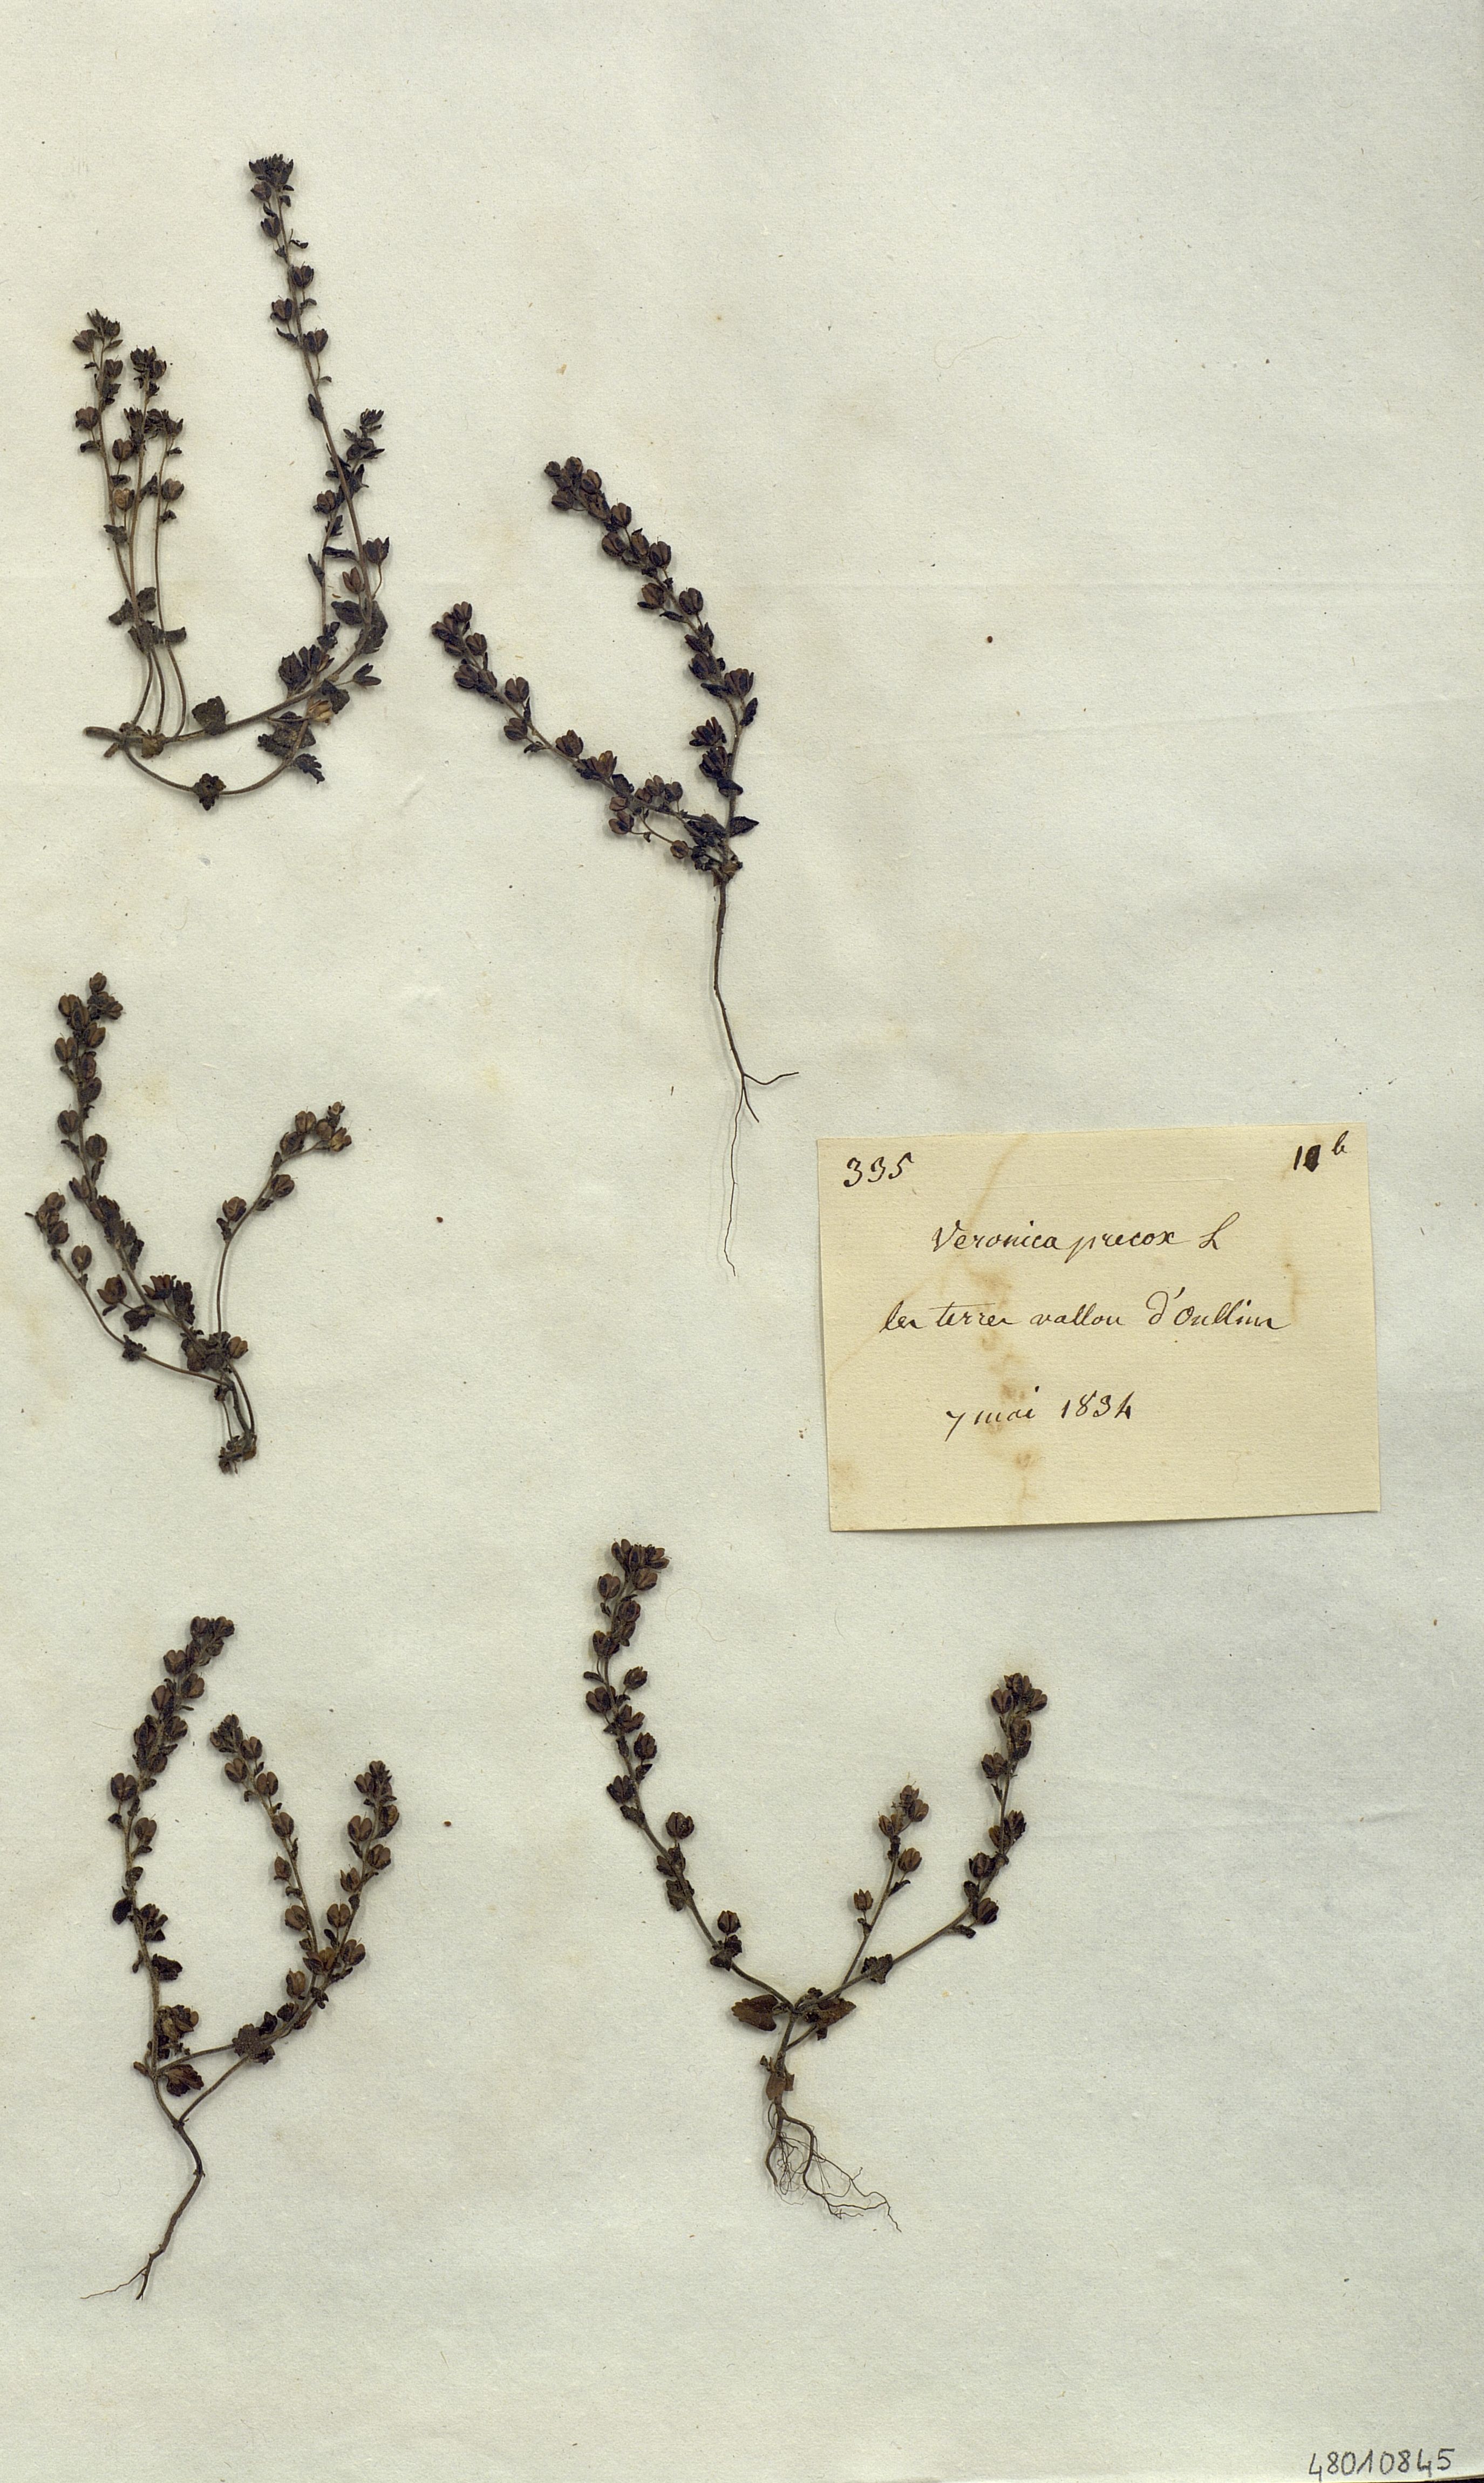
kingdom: Plantae
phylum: Tracheophyta
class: Magnoliopsida
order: Lamiales
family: Plantaginaceae
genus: Veronica
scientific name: Veronica persica
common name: Common field-speedwell
